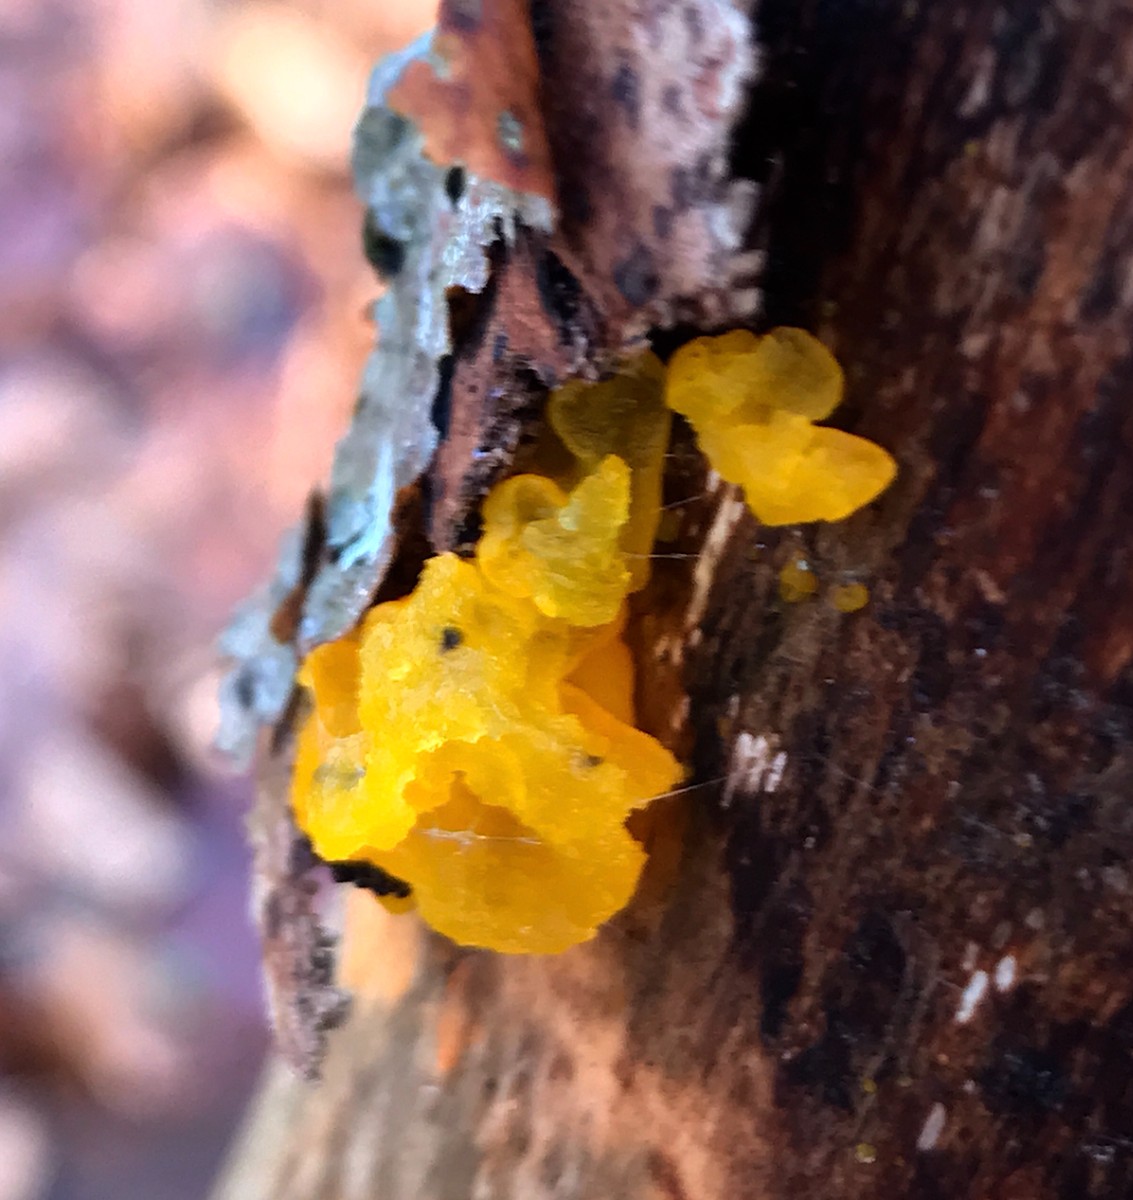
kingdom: Fungi
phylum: Basidiomycota
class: Tremellomycetes
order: Tremellales
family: Tremellaceae
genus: Tremella
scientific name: Tremella mesenterica
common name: gul bævresvamp
